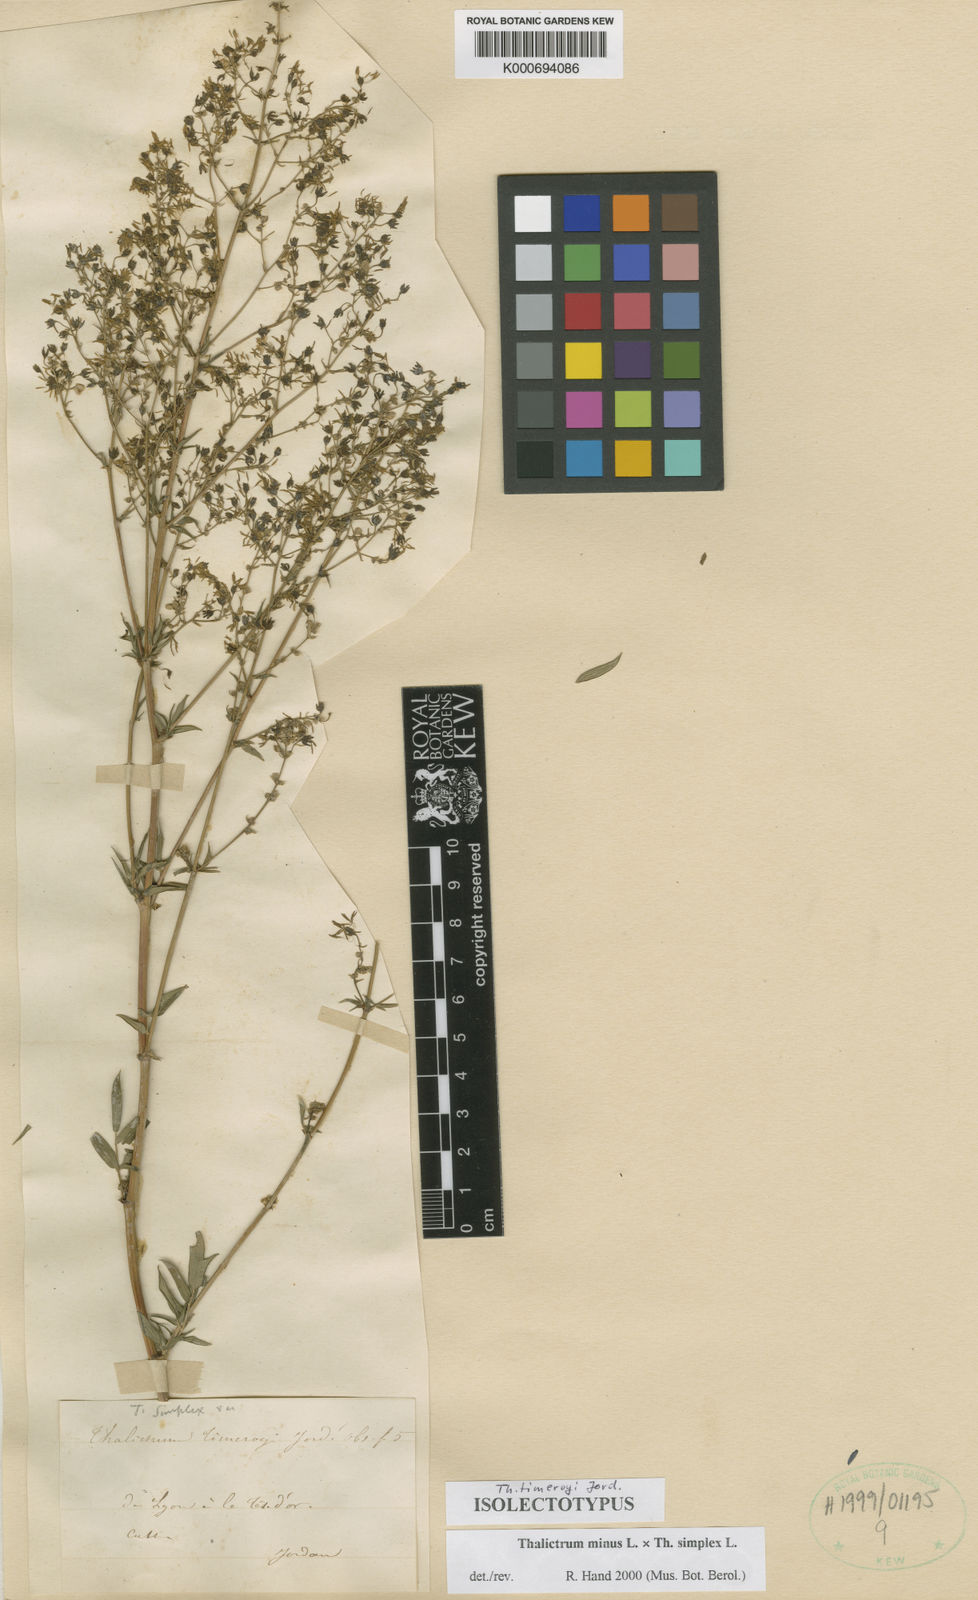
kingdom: Plantae
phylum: Tracheophyta
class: Magnoliopsida
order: Ranunculales
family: Ranunculaceae
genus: Thalictrum
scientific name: Thalictrum minus
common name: Lesser meadow-rue
